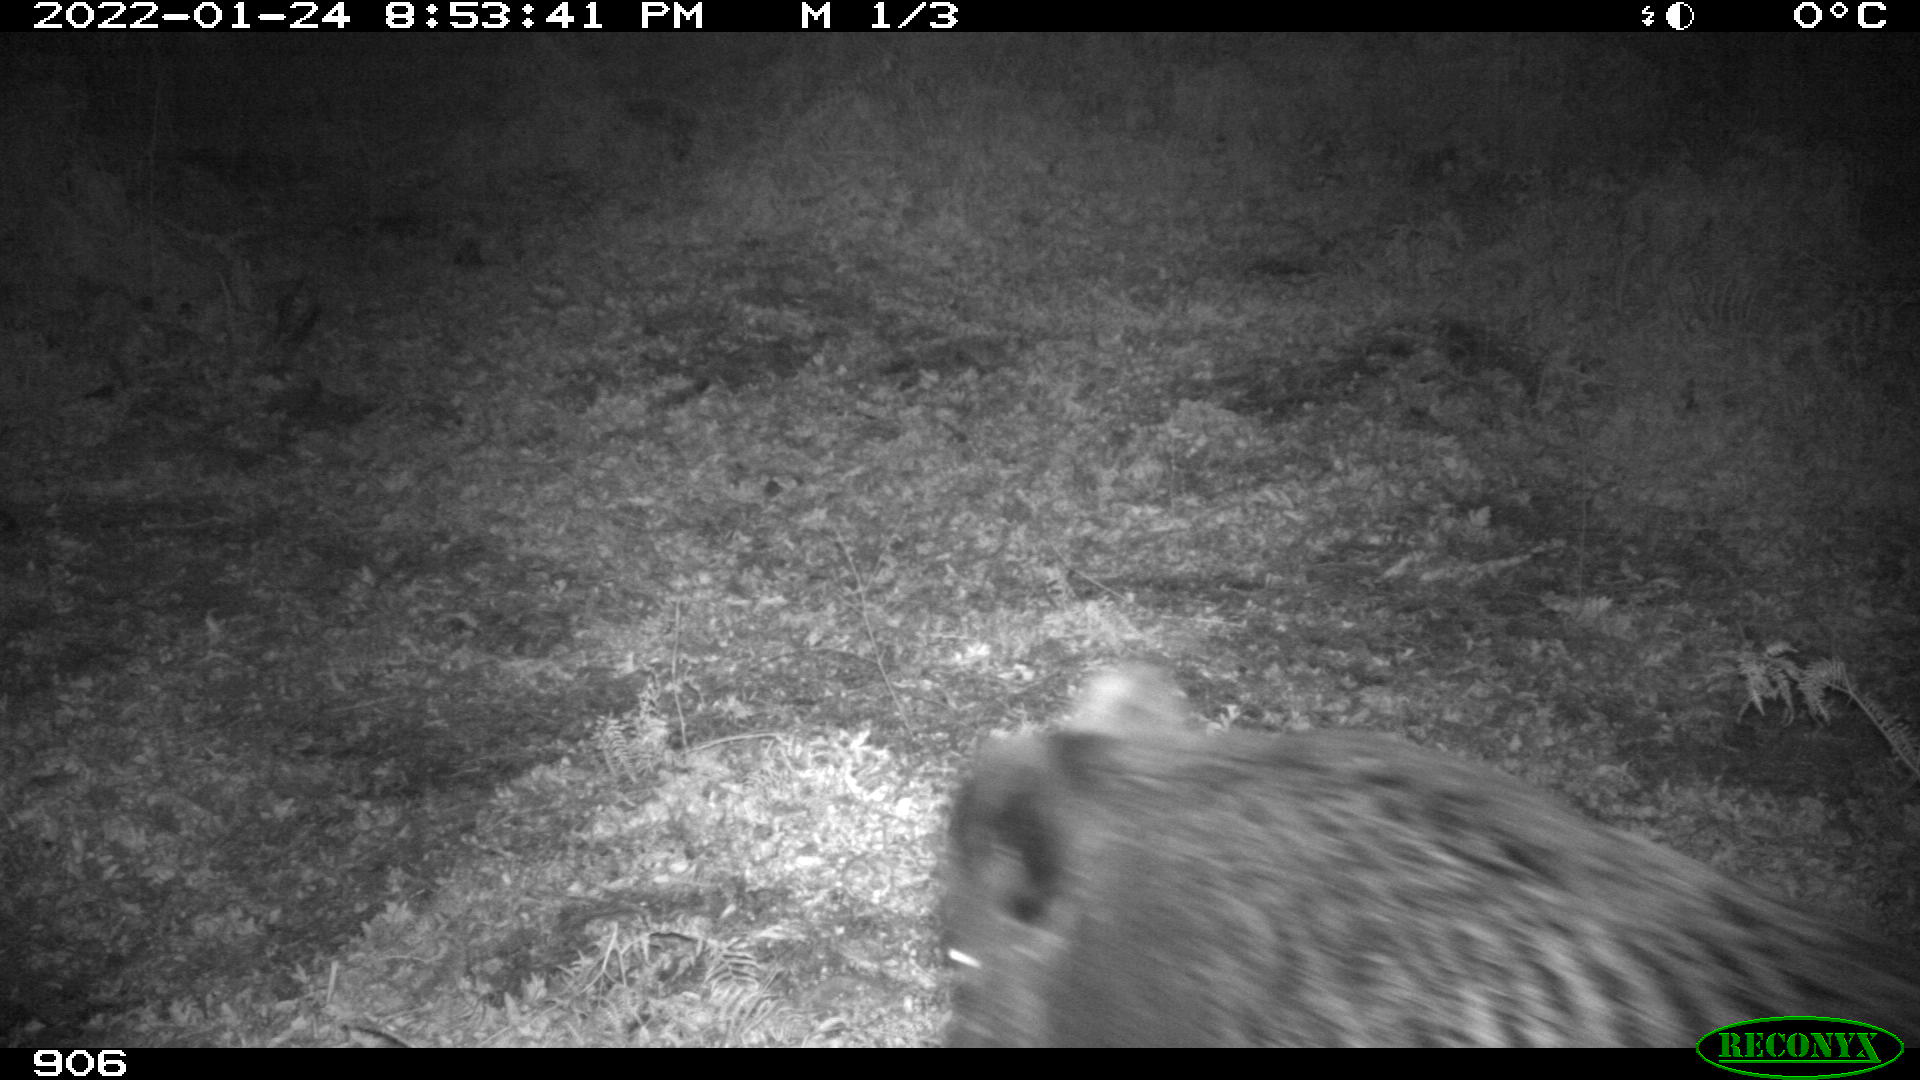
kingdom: Animalia
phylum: Chordata
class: Mammalia
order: Artiodactyla
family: Suidae
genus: Sus
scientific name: Sus scrofa
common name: Wild boar
